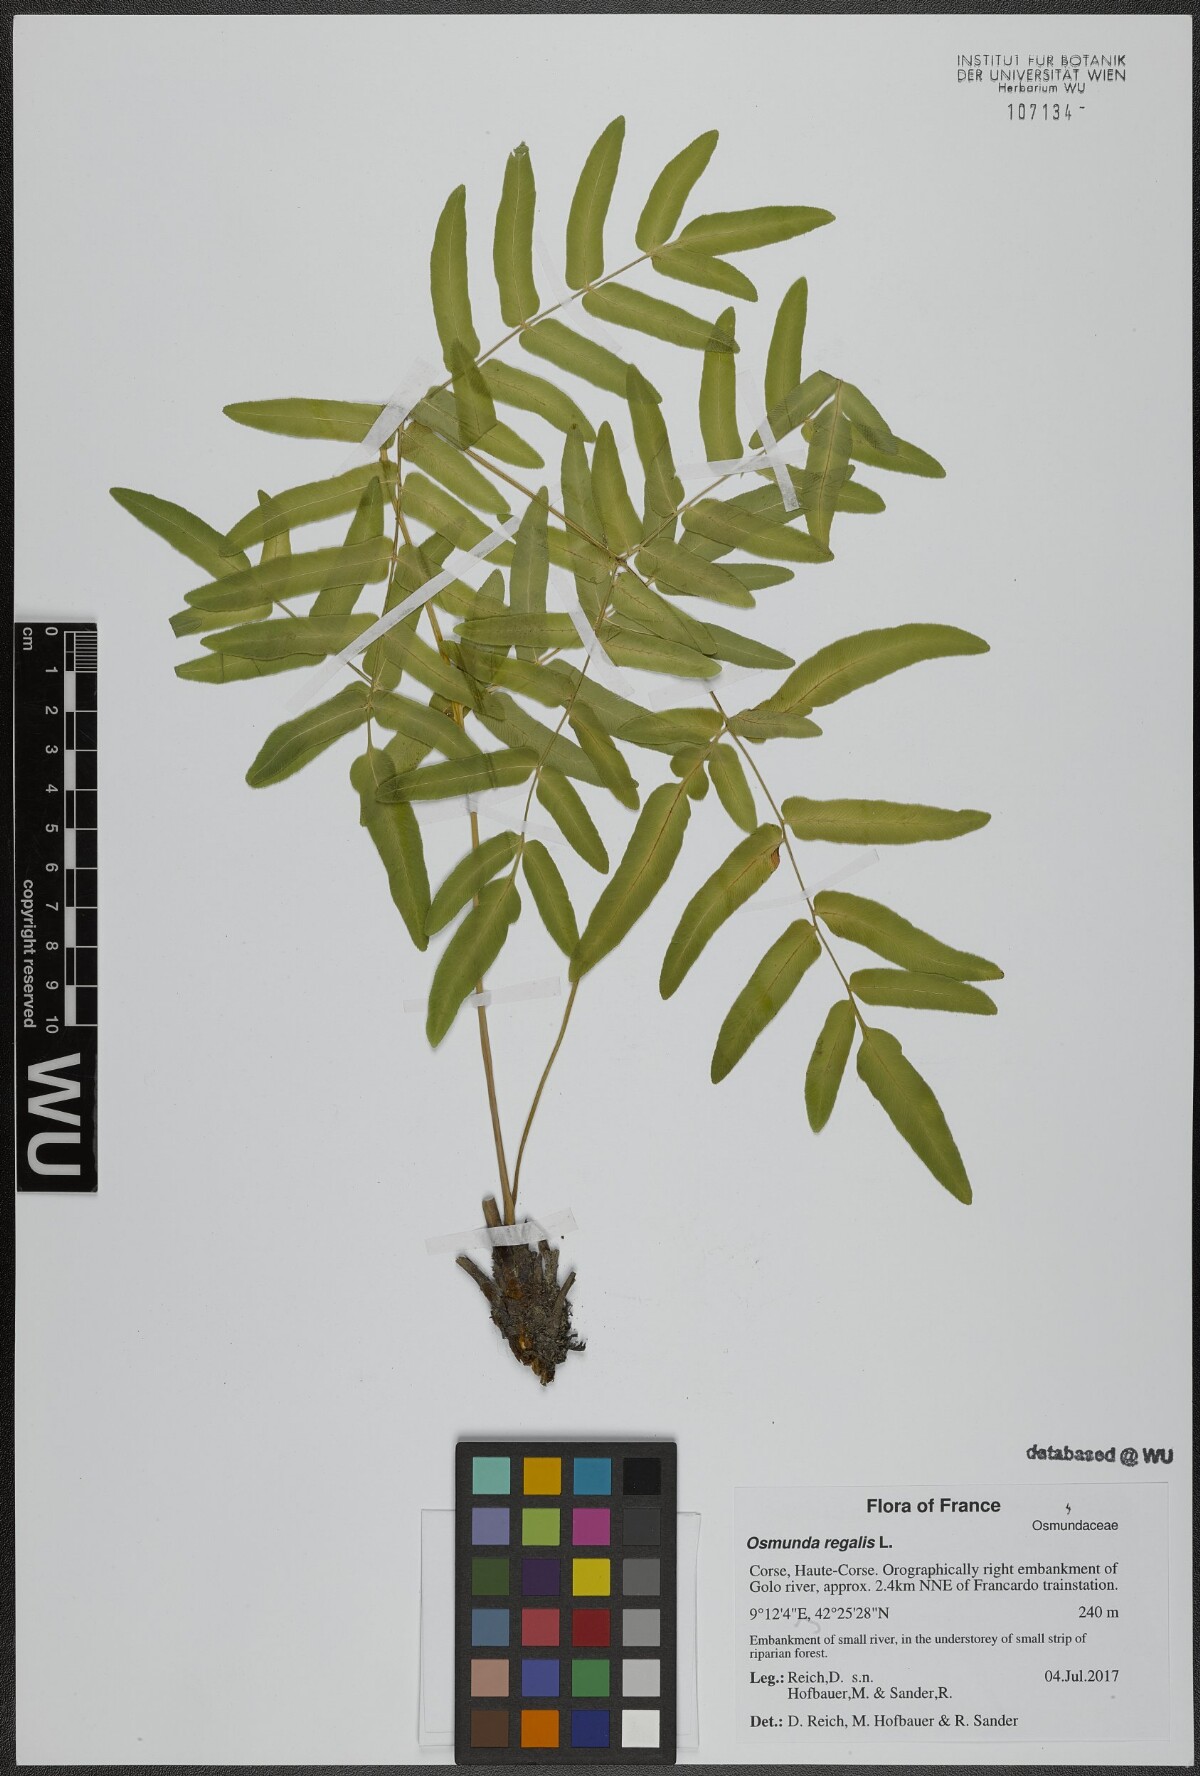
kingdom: Plantae
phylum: Tracheophyta
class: Polypodiopsida
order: Osmundales
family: Osmundaceae
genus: Osmunda
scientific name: Osmunda regalis
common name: Royal fern
